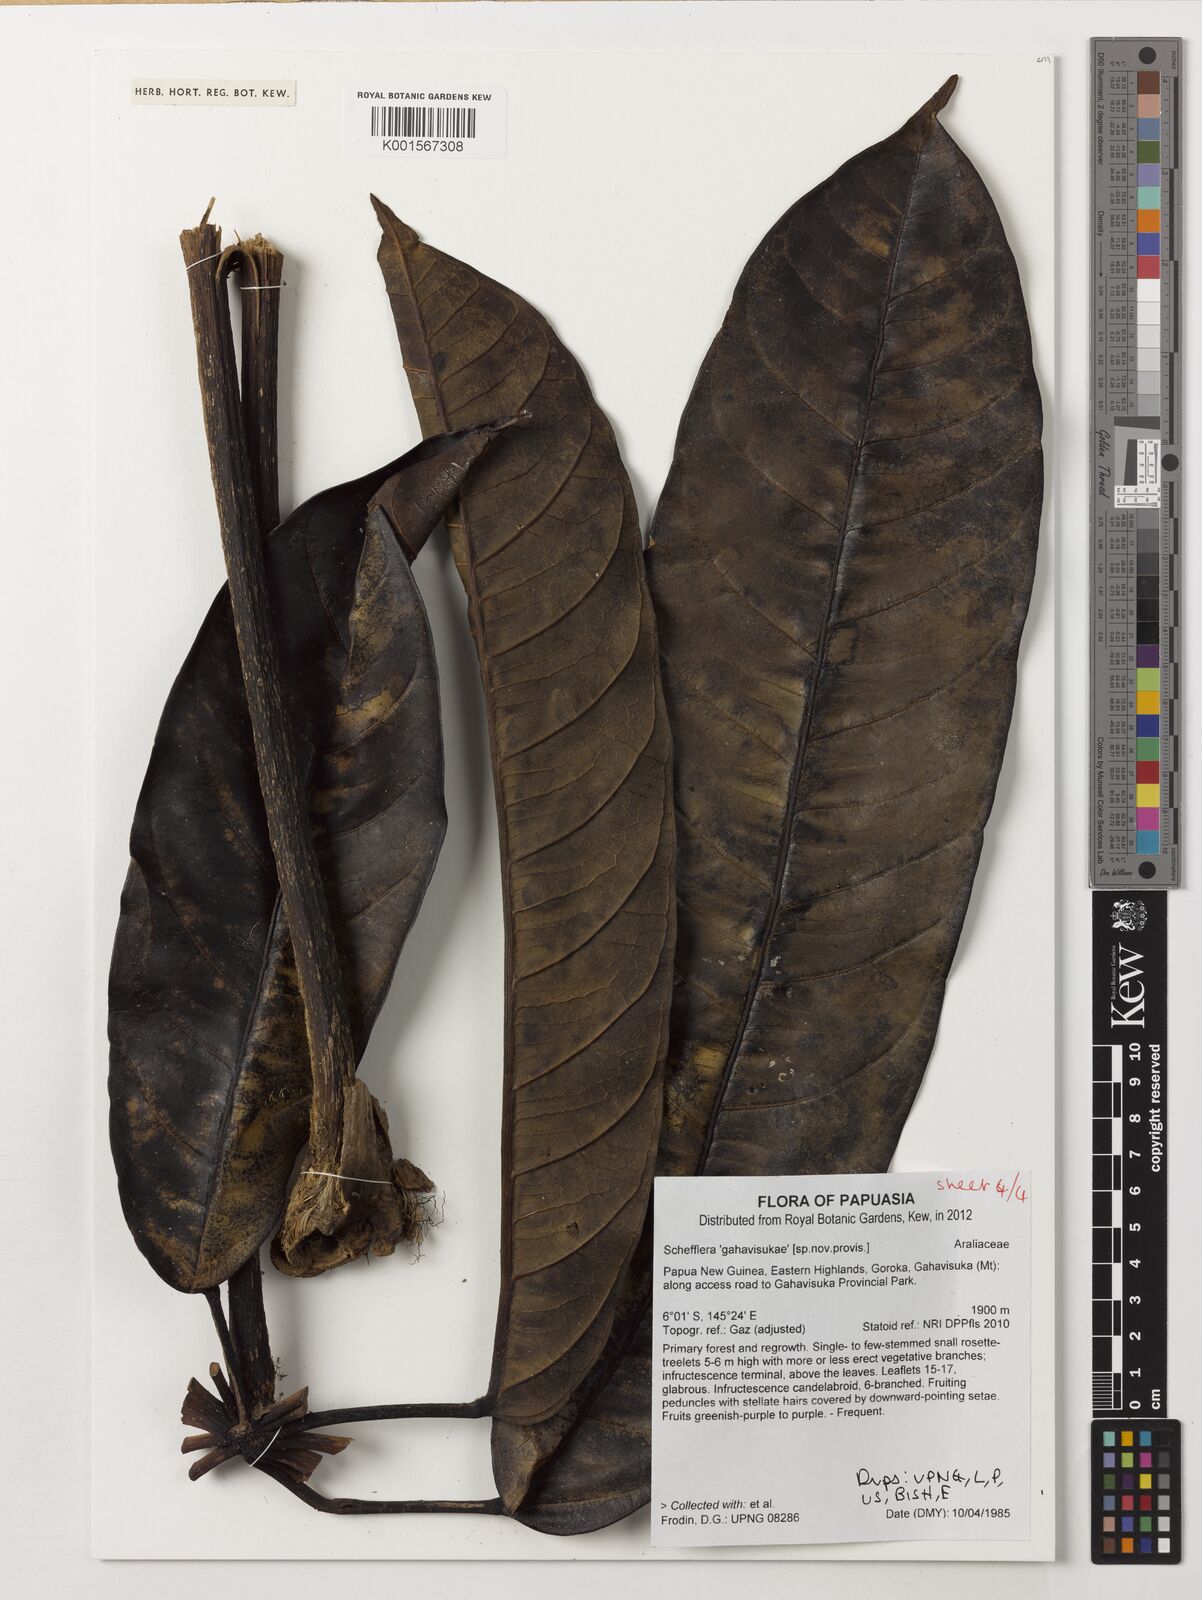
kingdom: Plantae
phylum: Tracheophyta
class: Magnoliopsida
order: Apiales
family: Araliaceae
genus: Schefflera
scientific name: Schefflera
